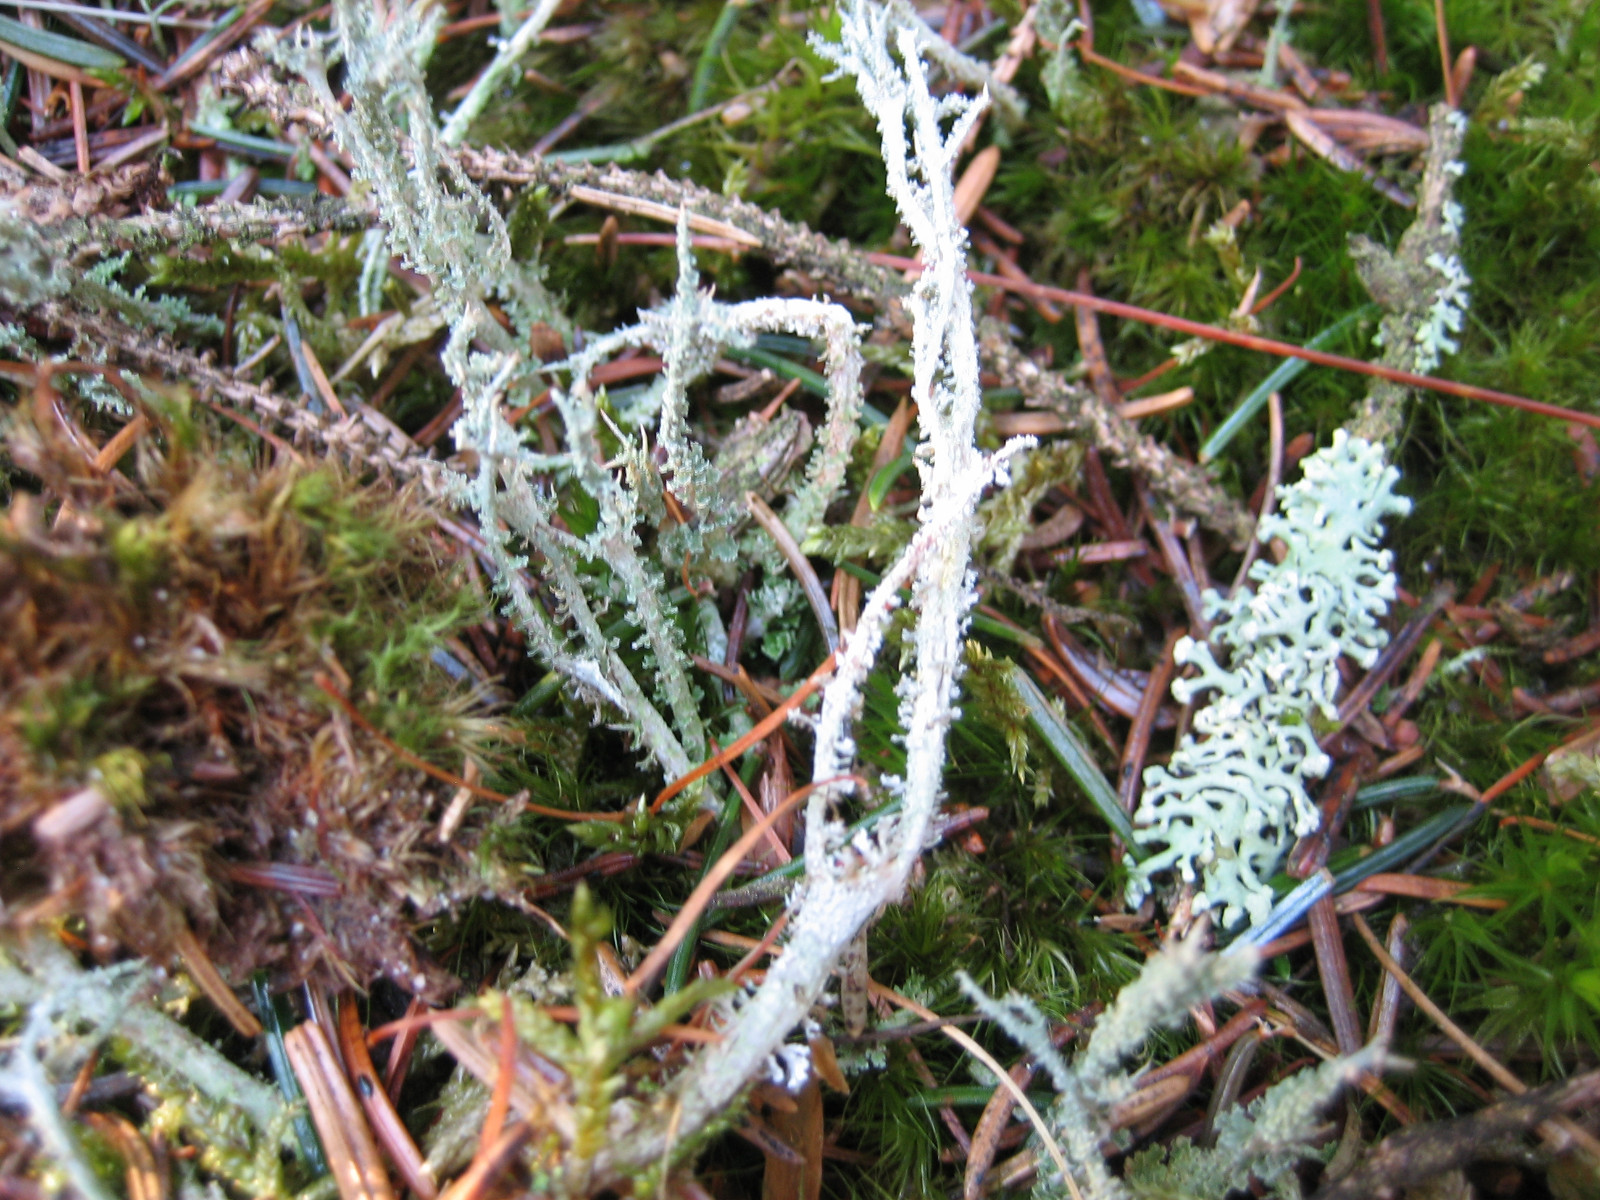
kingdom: Fungi
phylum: Ascomycota
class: Lecanoromycetes
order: Lecanorales
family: Cladoniaceae
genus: Cladonia
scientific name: Cladonia squamosa
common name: skælklædt bægerlav
